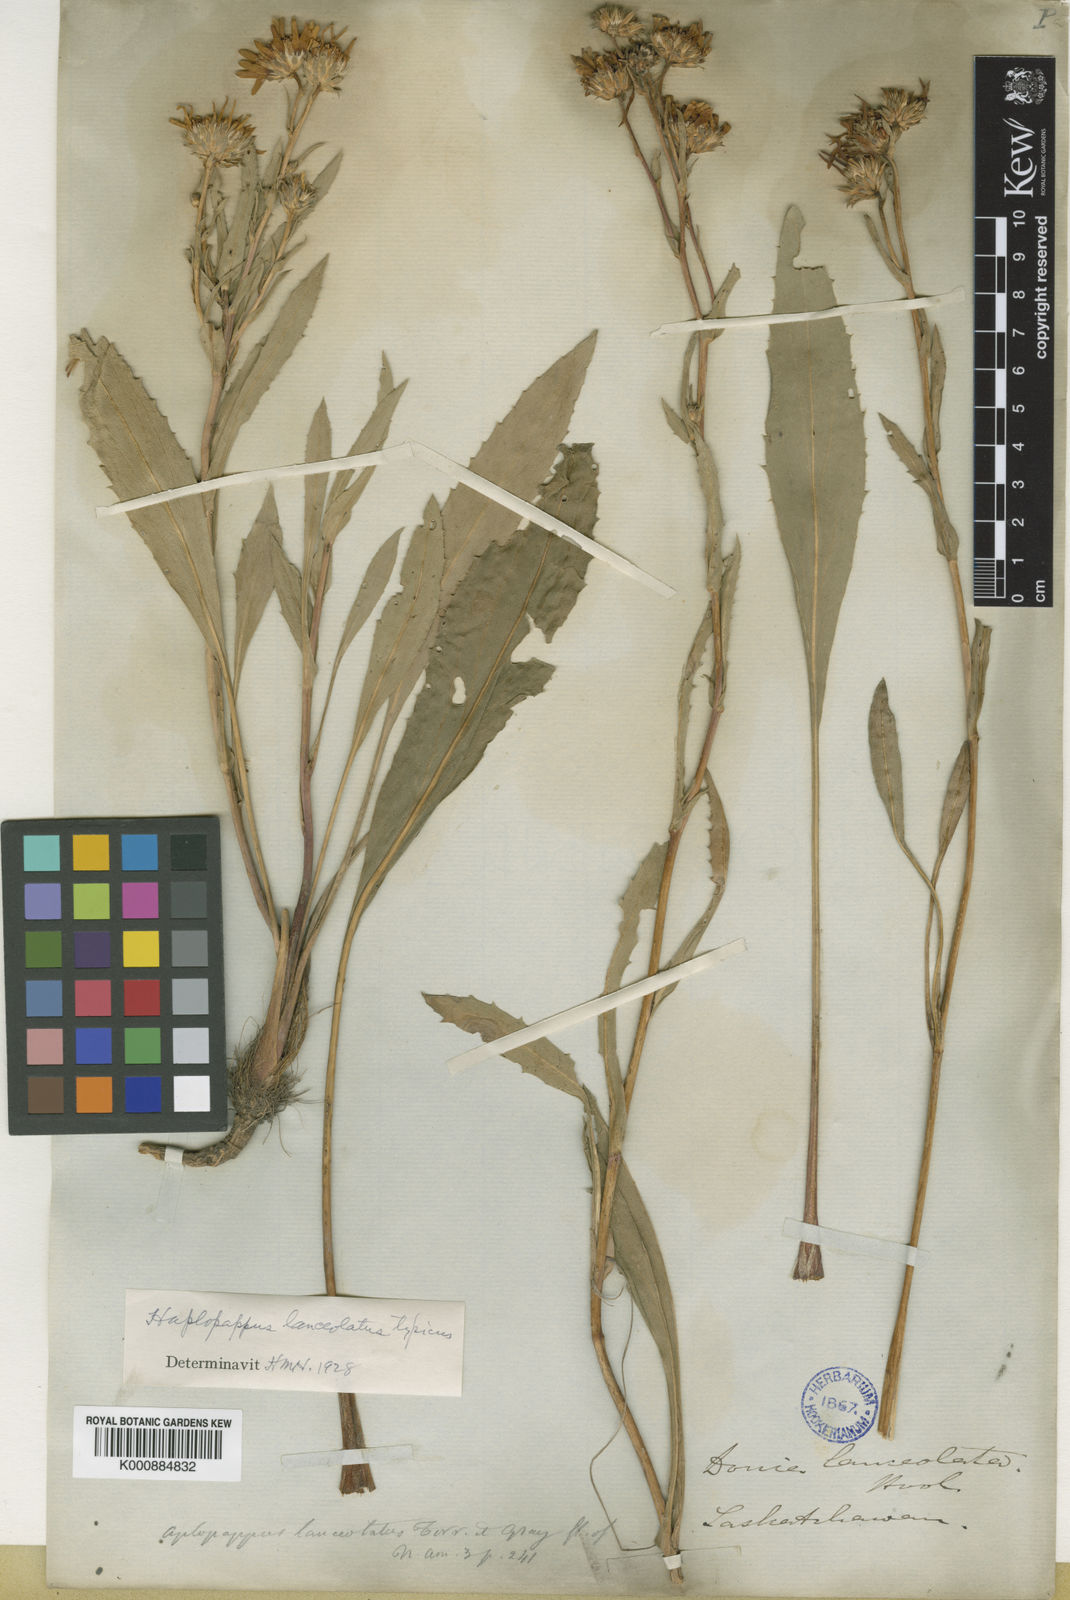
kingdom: Plantae
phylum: Tracheophyta
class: Magnoliopsida
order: Asterales
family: Asteraceae
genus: Pyrrocoma
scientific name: Pyrrocoma lanceolata
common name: Lance-leaf goldenweed
